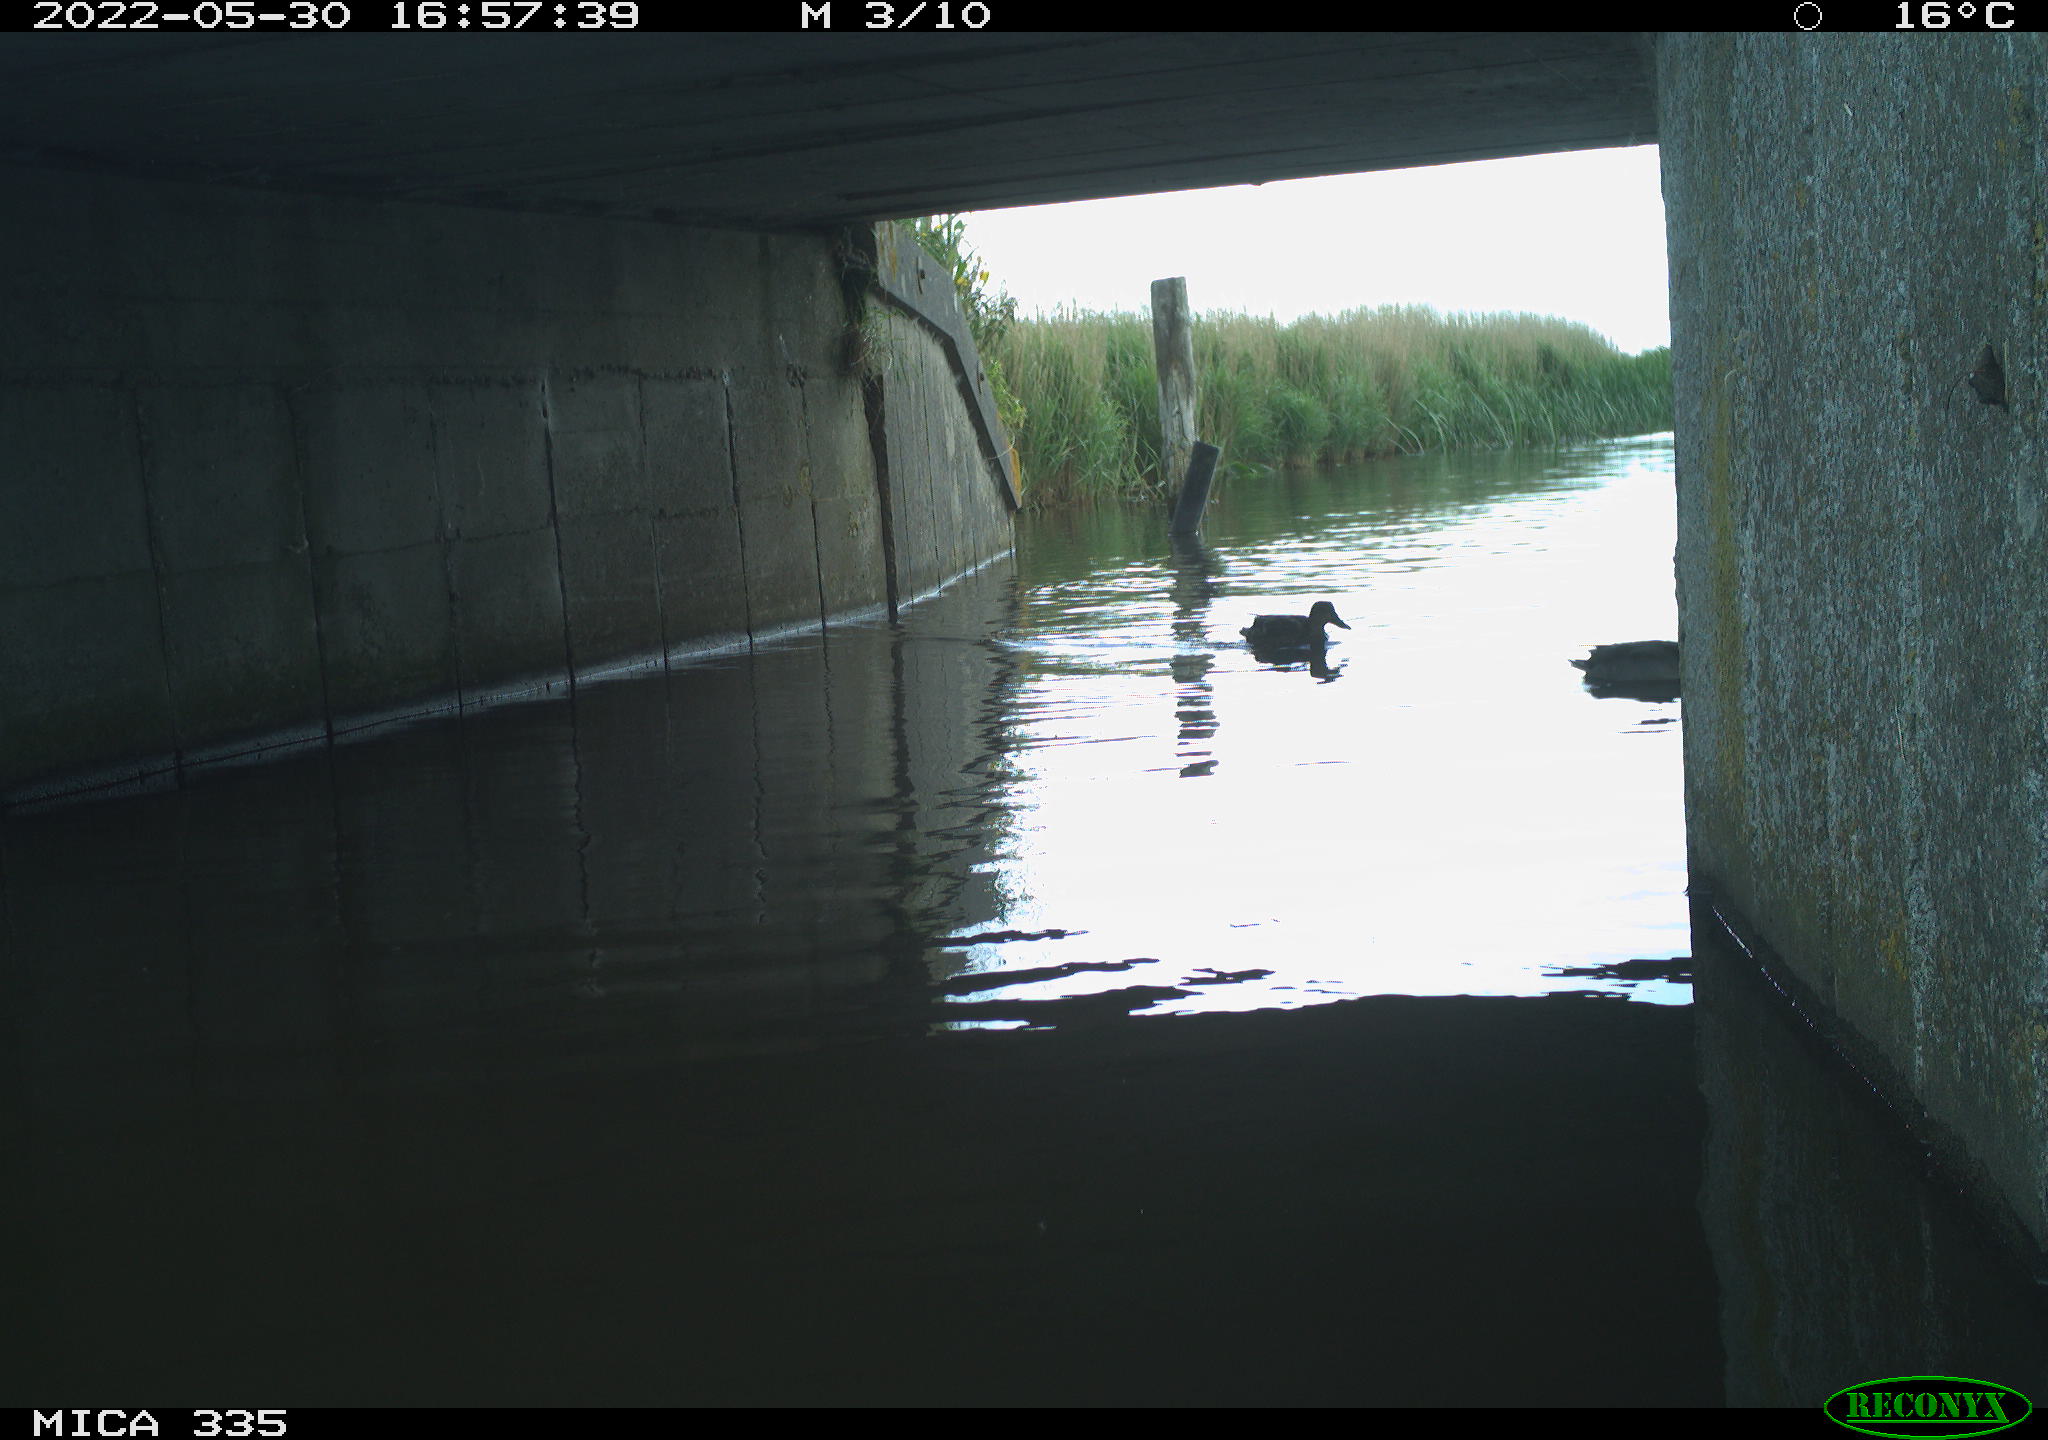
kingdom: Animalia
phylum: Chordata
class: Aves
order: Anseriformes
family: Anatidae
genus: Anas
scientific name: Anas platyrhynchos
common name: Mallard
